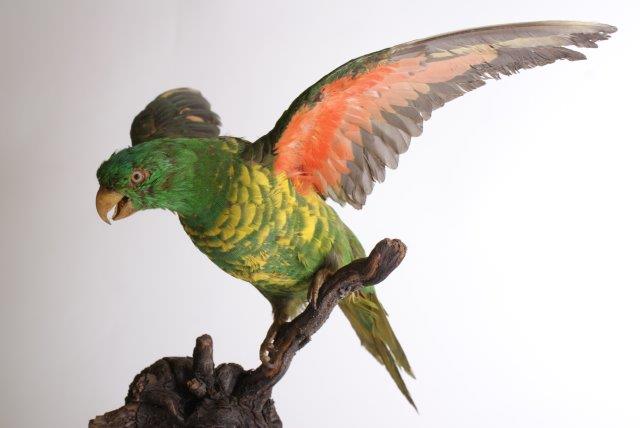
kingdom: Animalia
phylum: Chordata
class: Aves
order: Psittaciformes
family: Psittacidae
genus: Trichoglossus
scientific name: Trichoglossus chlorolepidotus
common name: Scaly-breasted lorikeet
